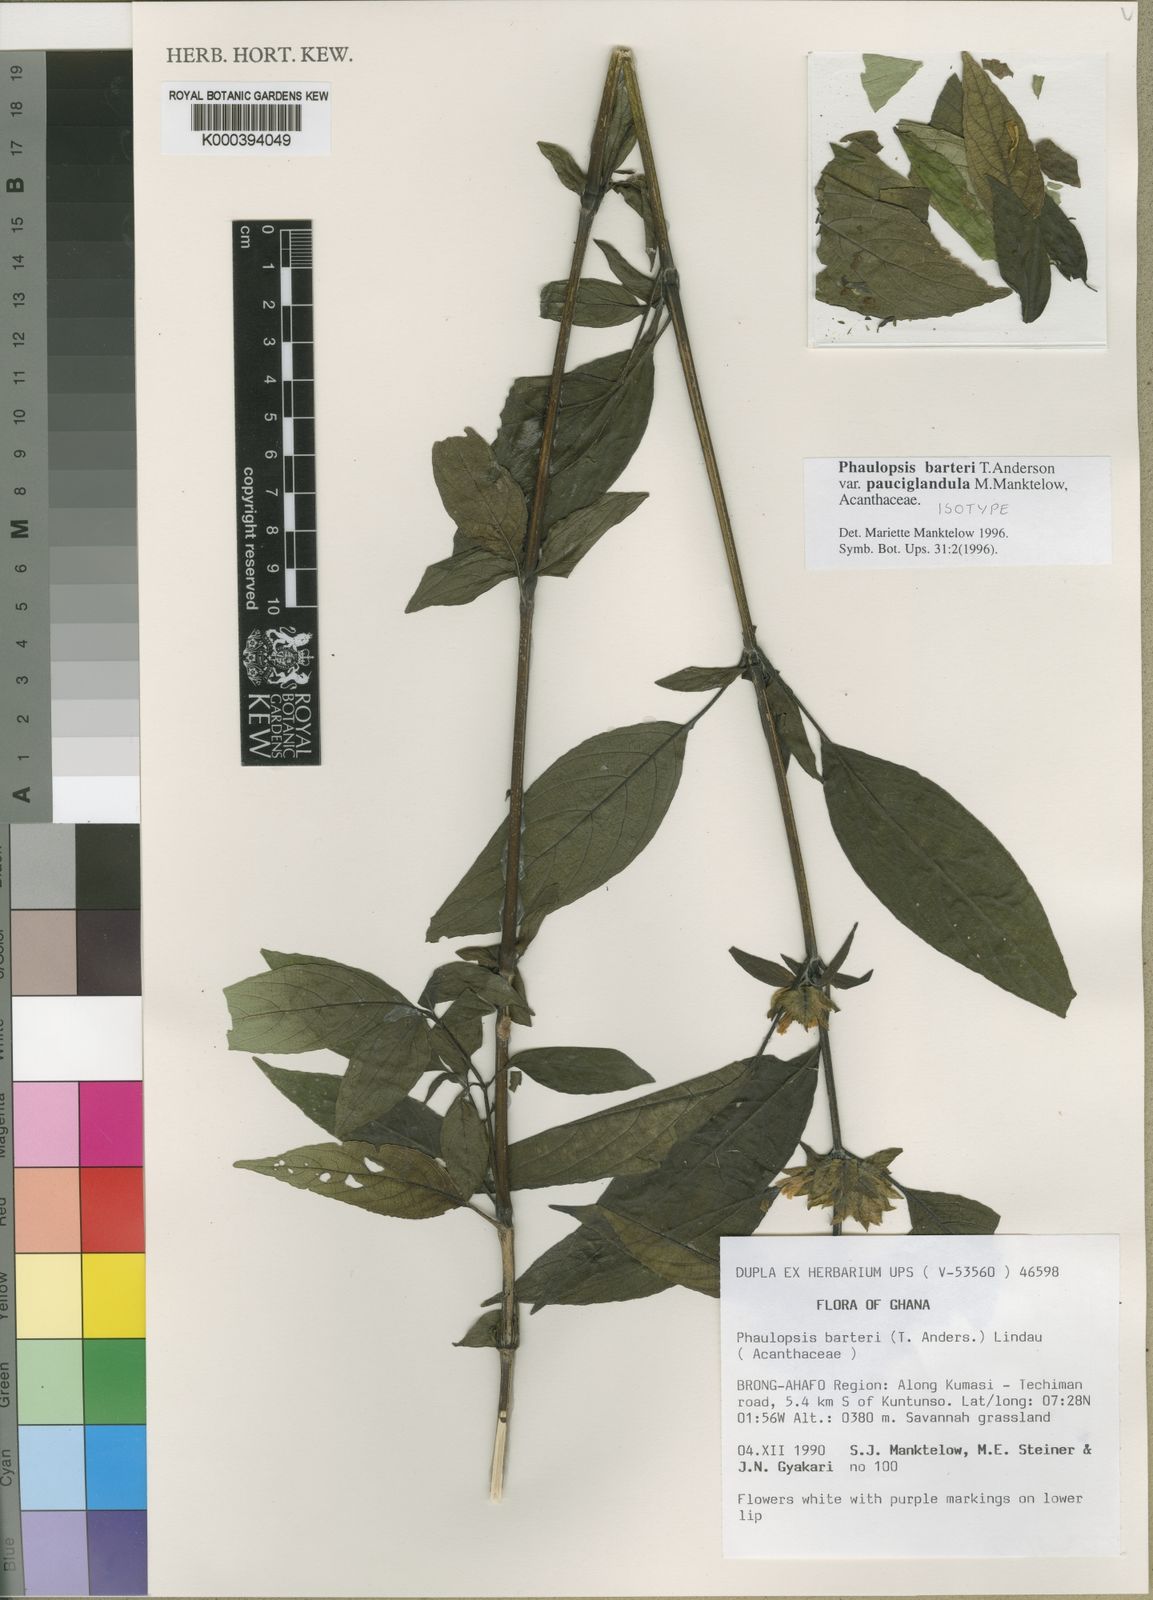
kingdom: Plantae
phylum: Tracheophyta
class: Magnoliopsida
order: Lamiales
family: Acanthaceae
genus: Phaulopsis
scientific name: Phaulopsis barteri
